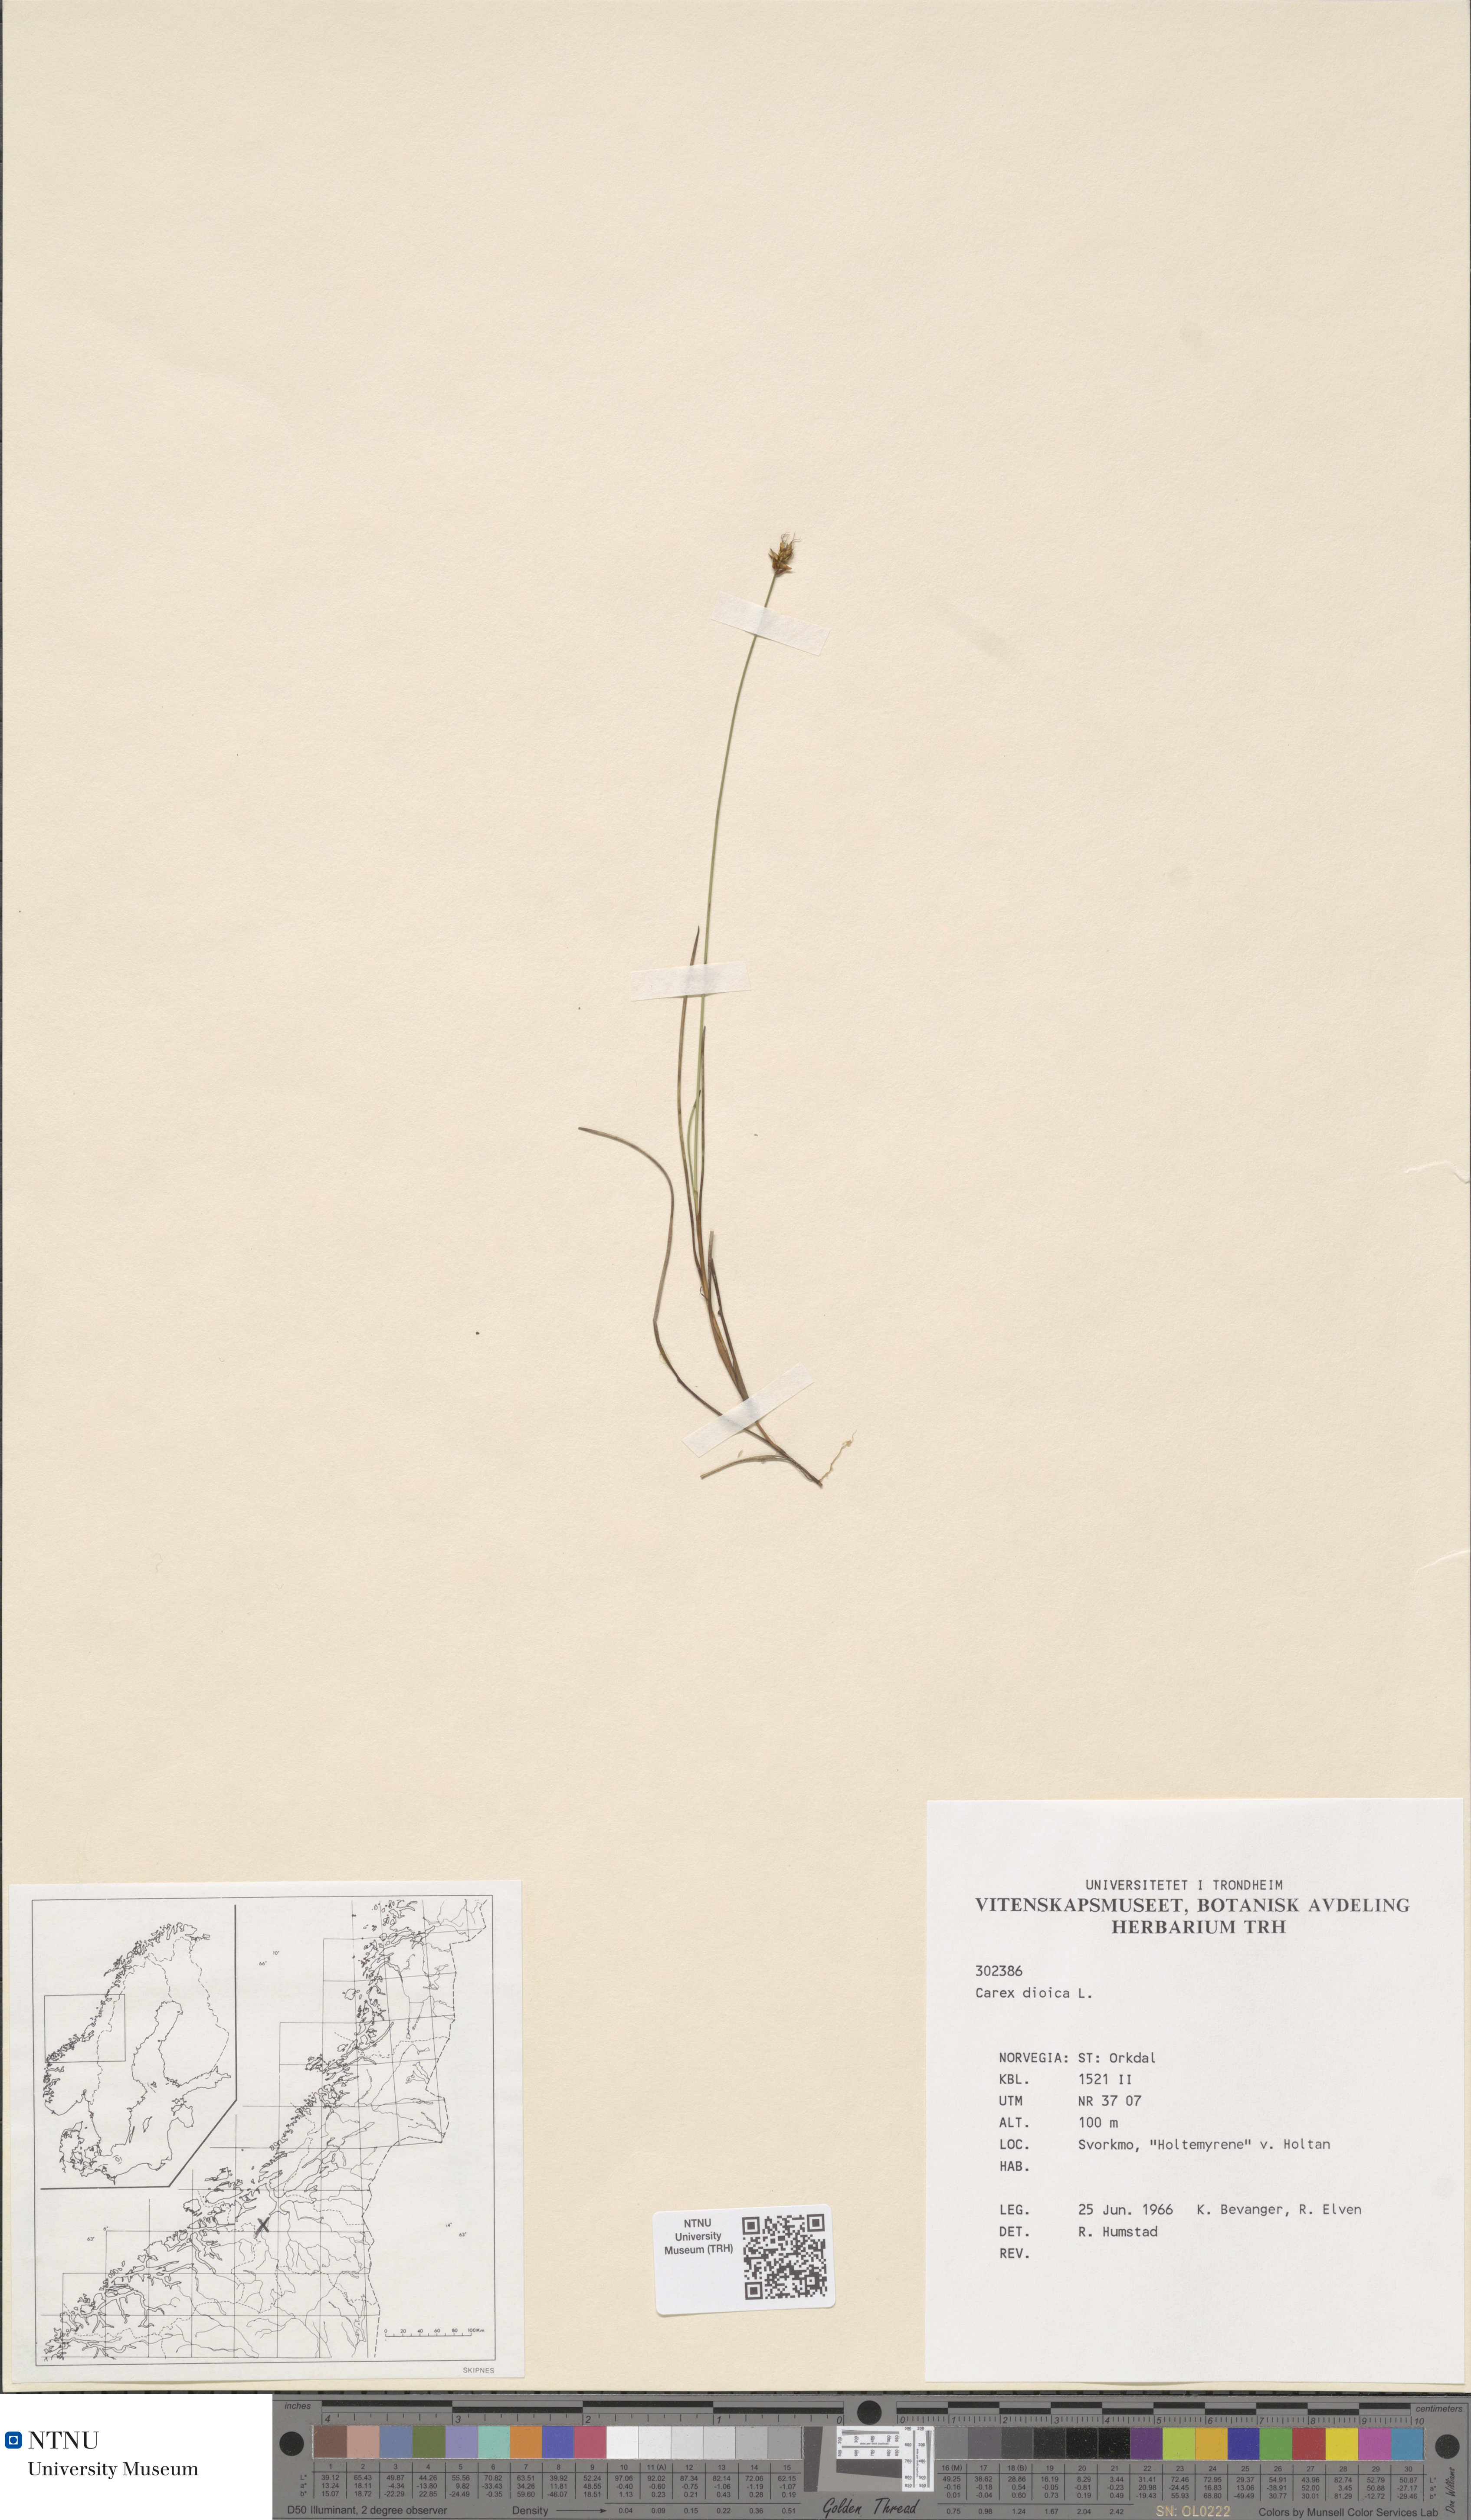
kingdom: Plantae
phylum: Tracheophyta
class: Liliopsida
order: Poales
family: Cyperaceae
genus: Carex
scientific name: Carex dioica
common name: Dioecious sedge
